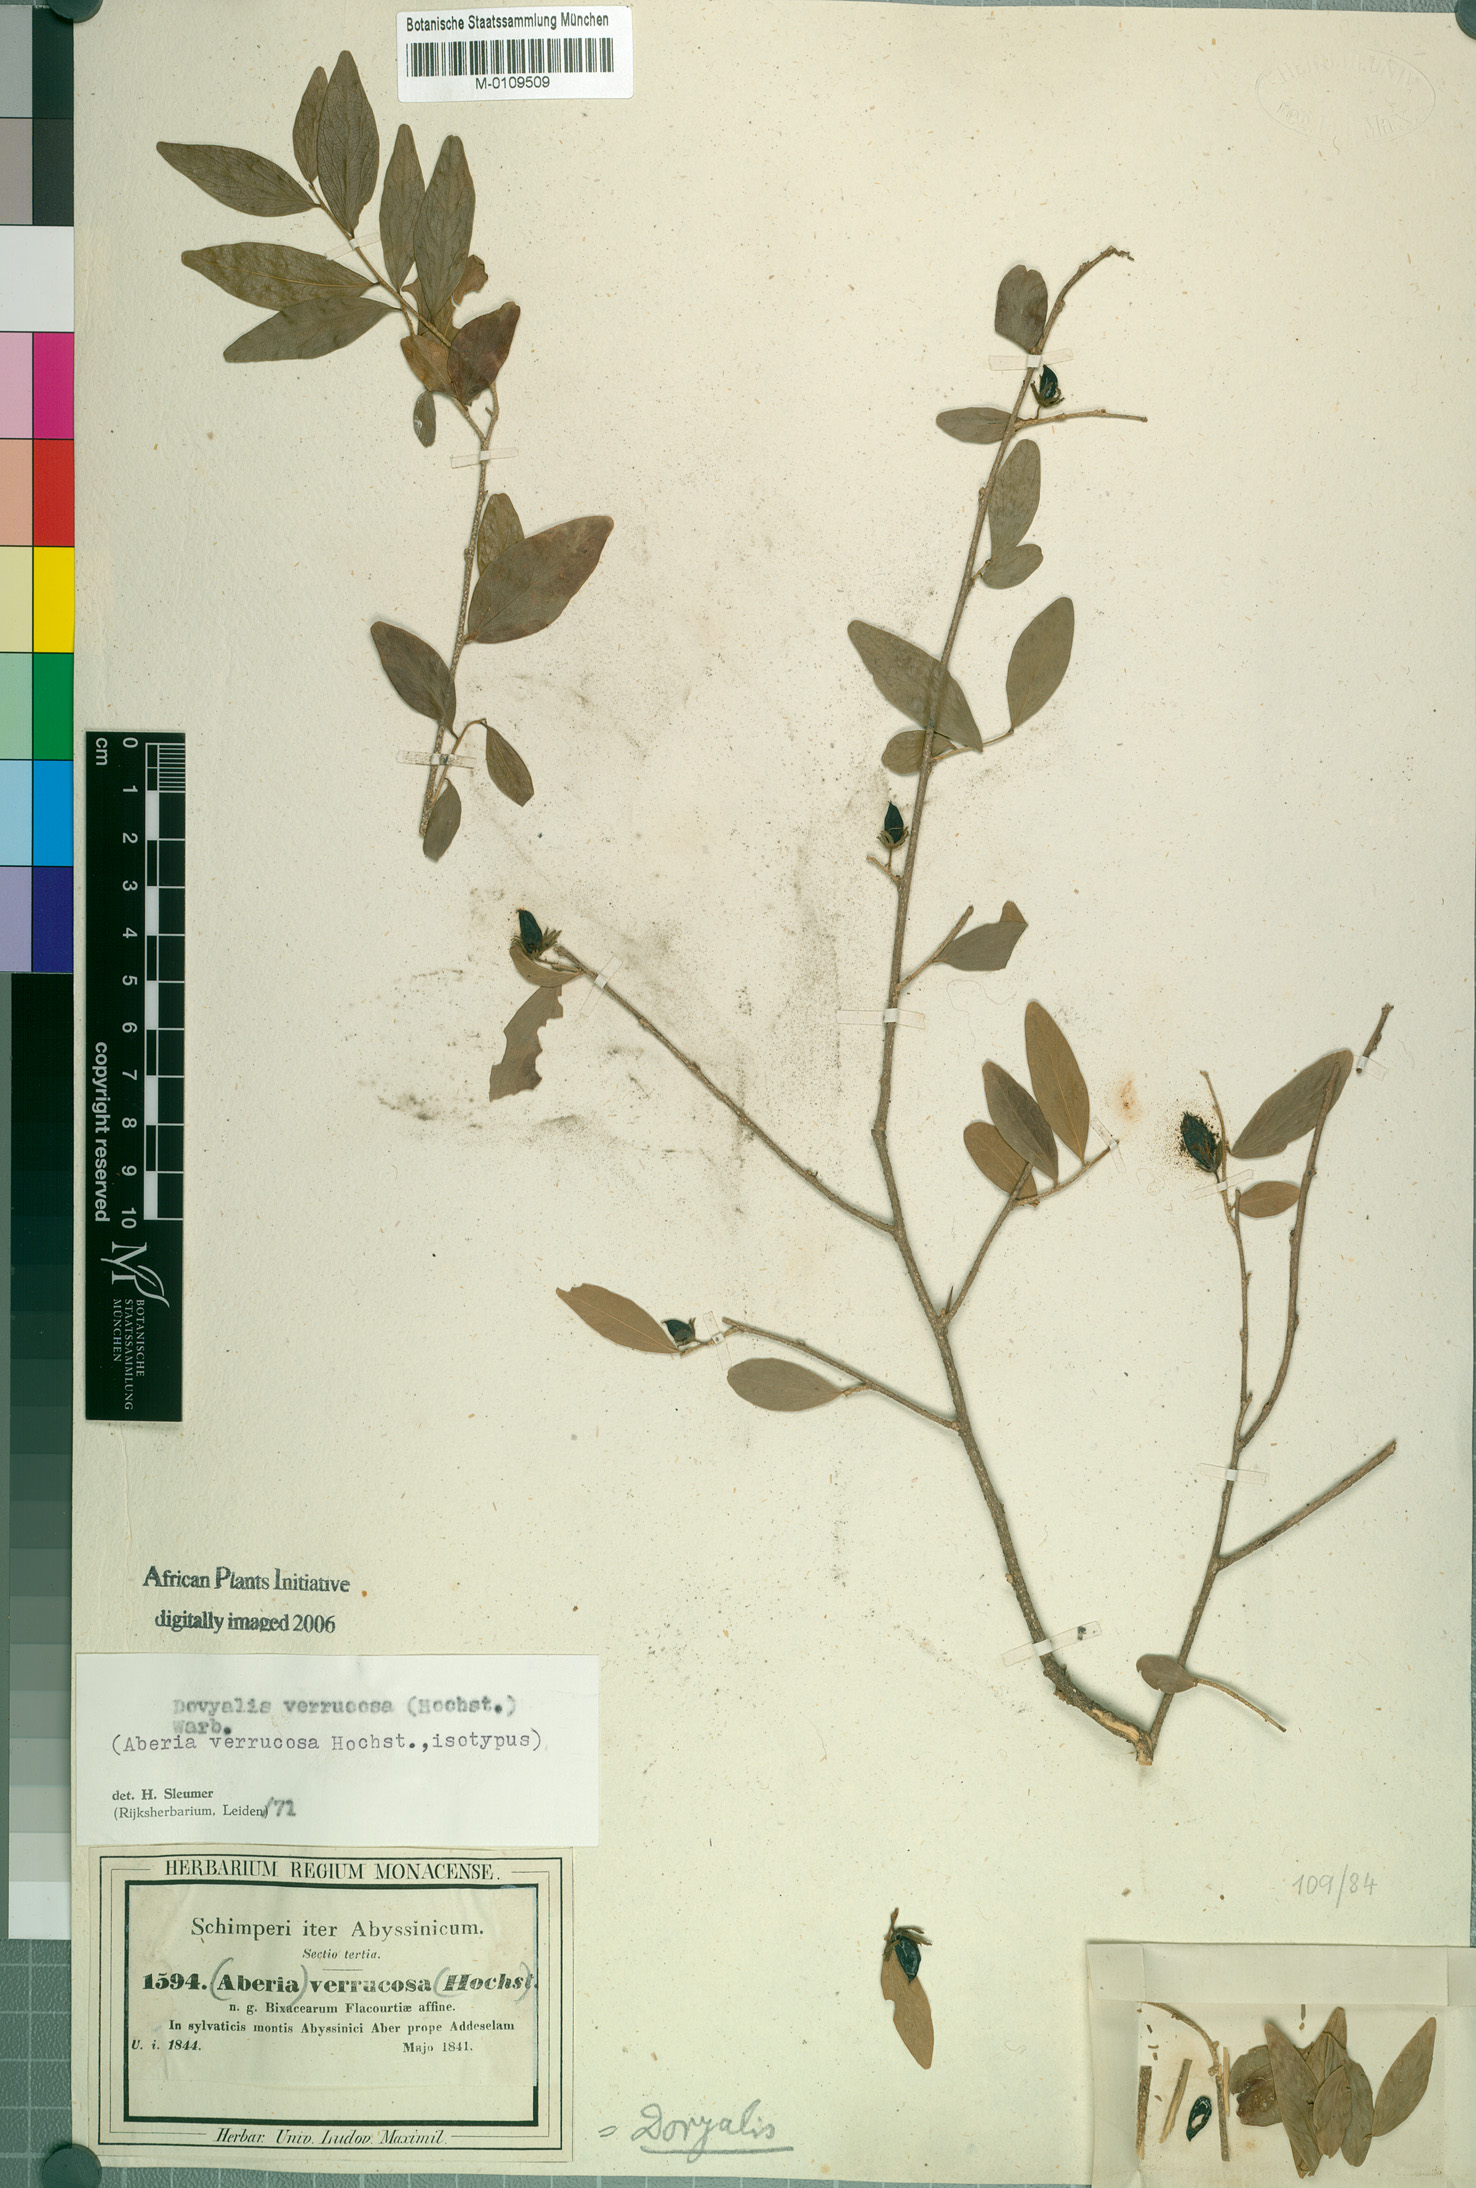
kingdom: Plantae
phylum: Tracheophyta
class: Magnoliopsida
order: Malpighiales
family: Salicaceae
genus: Dovyalis
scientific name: Dovyalis verrucosa
